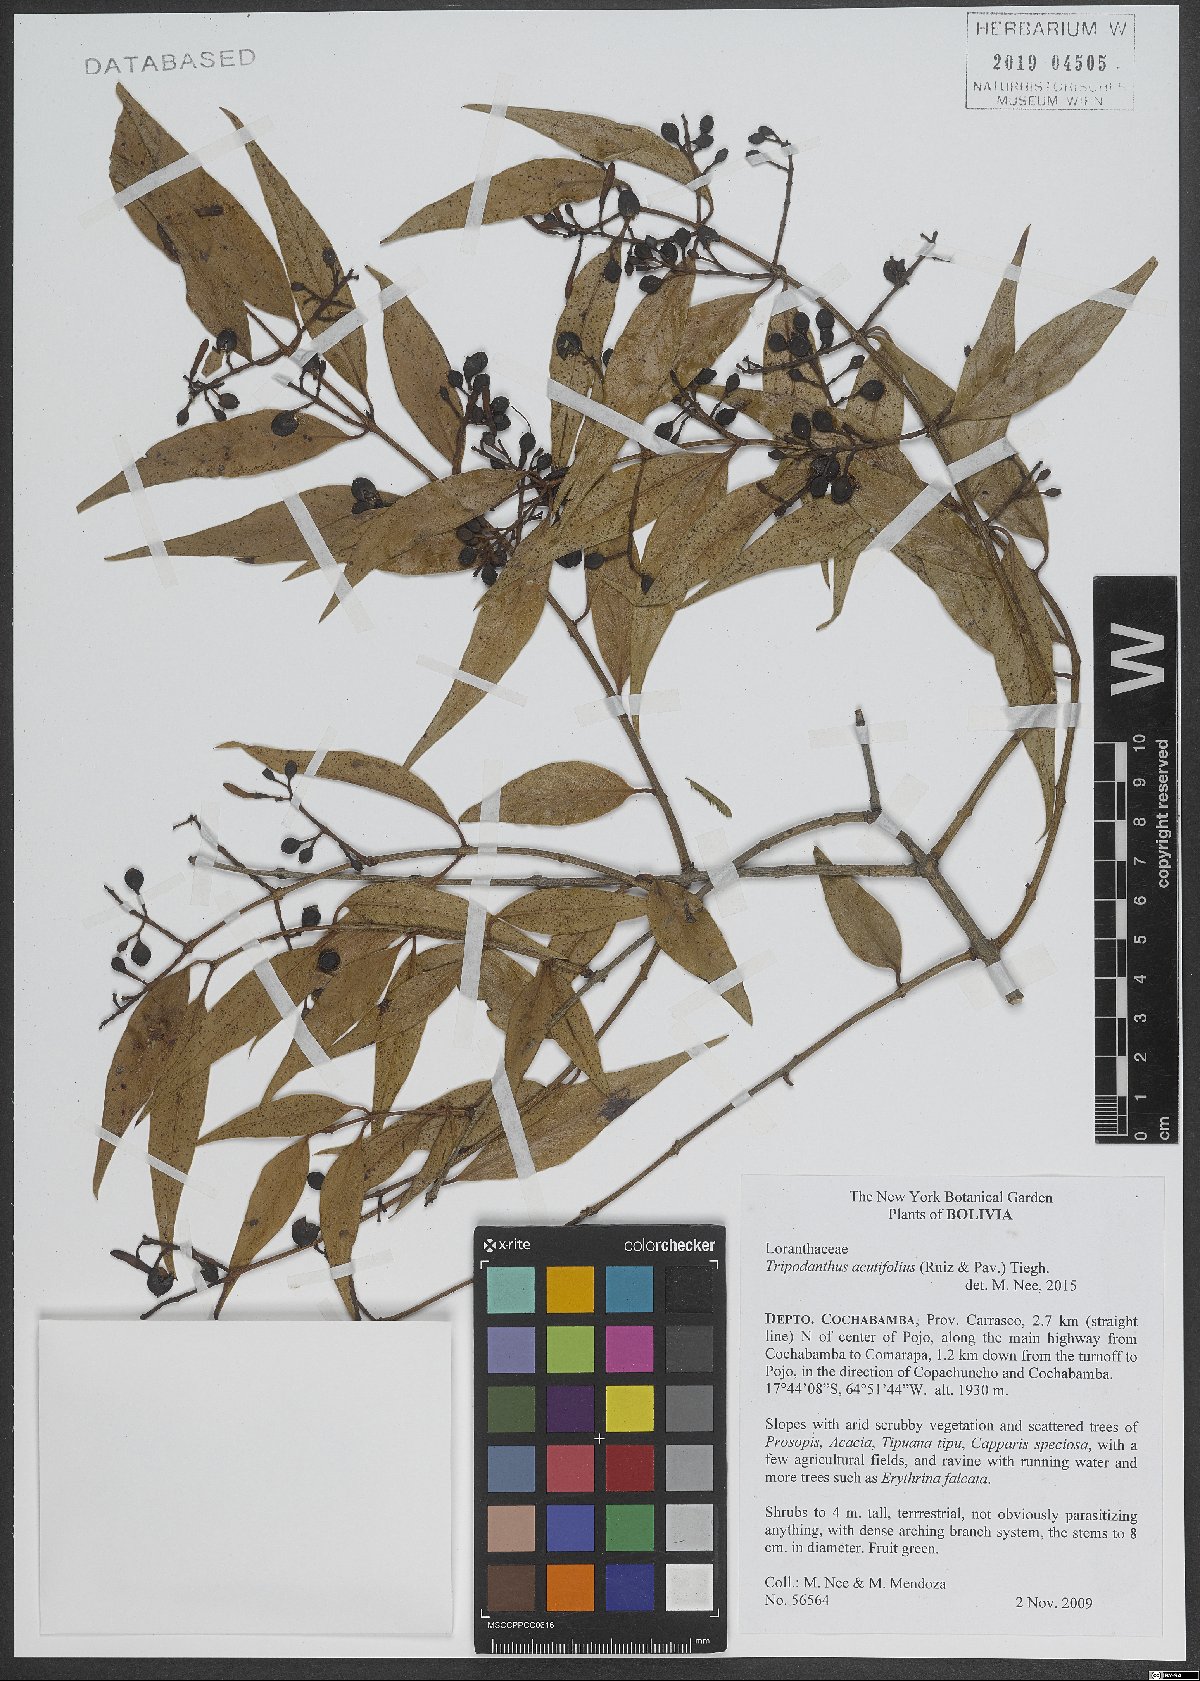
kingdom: Plantae
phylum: Tracheophyta
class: Magnoliopsida
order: Santalales
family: Loranthaceae
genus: Tripodanthus
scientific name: Tripodanthus acutifolius
